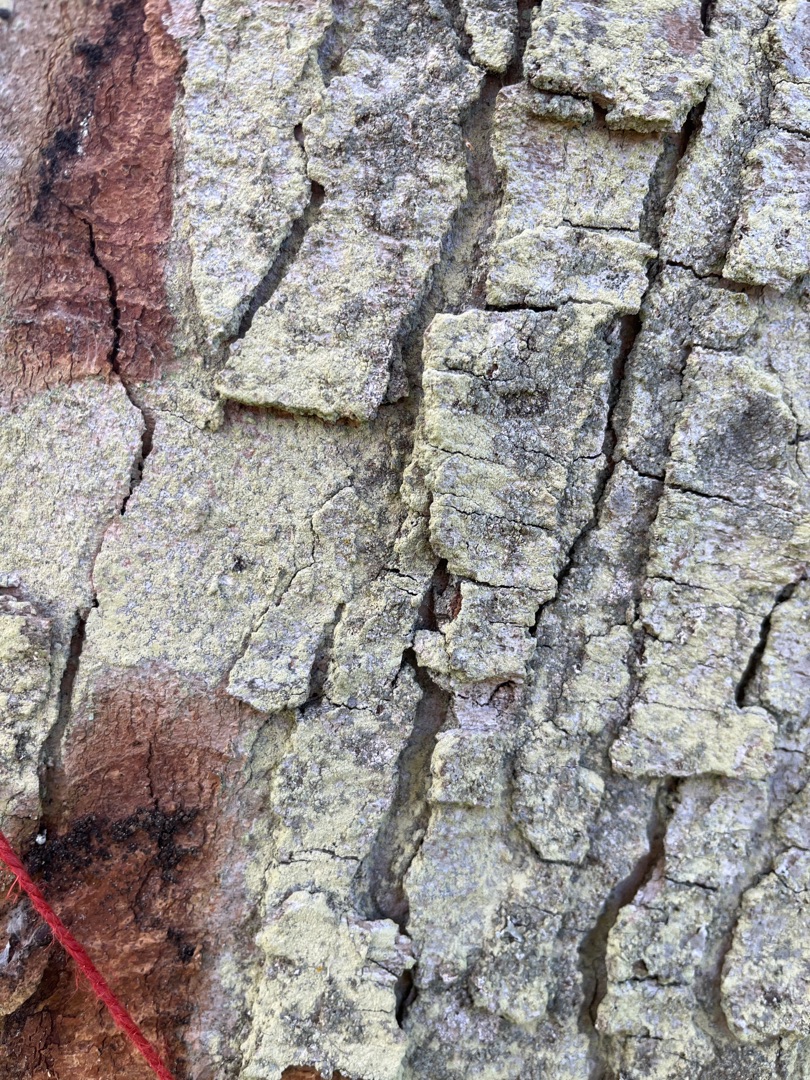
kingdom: Fungi
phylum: Ascomycota
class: Lecanoromycetes
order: Lecanorales
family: Lecanoraceae
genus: Lecanora
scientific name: Lecanora expallens
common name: Bleggul kantskivelav
